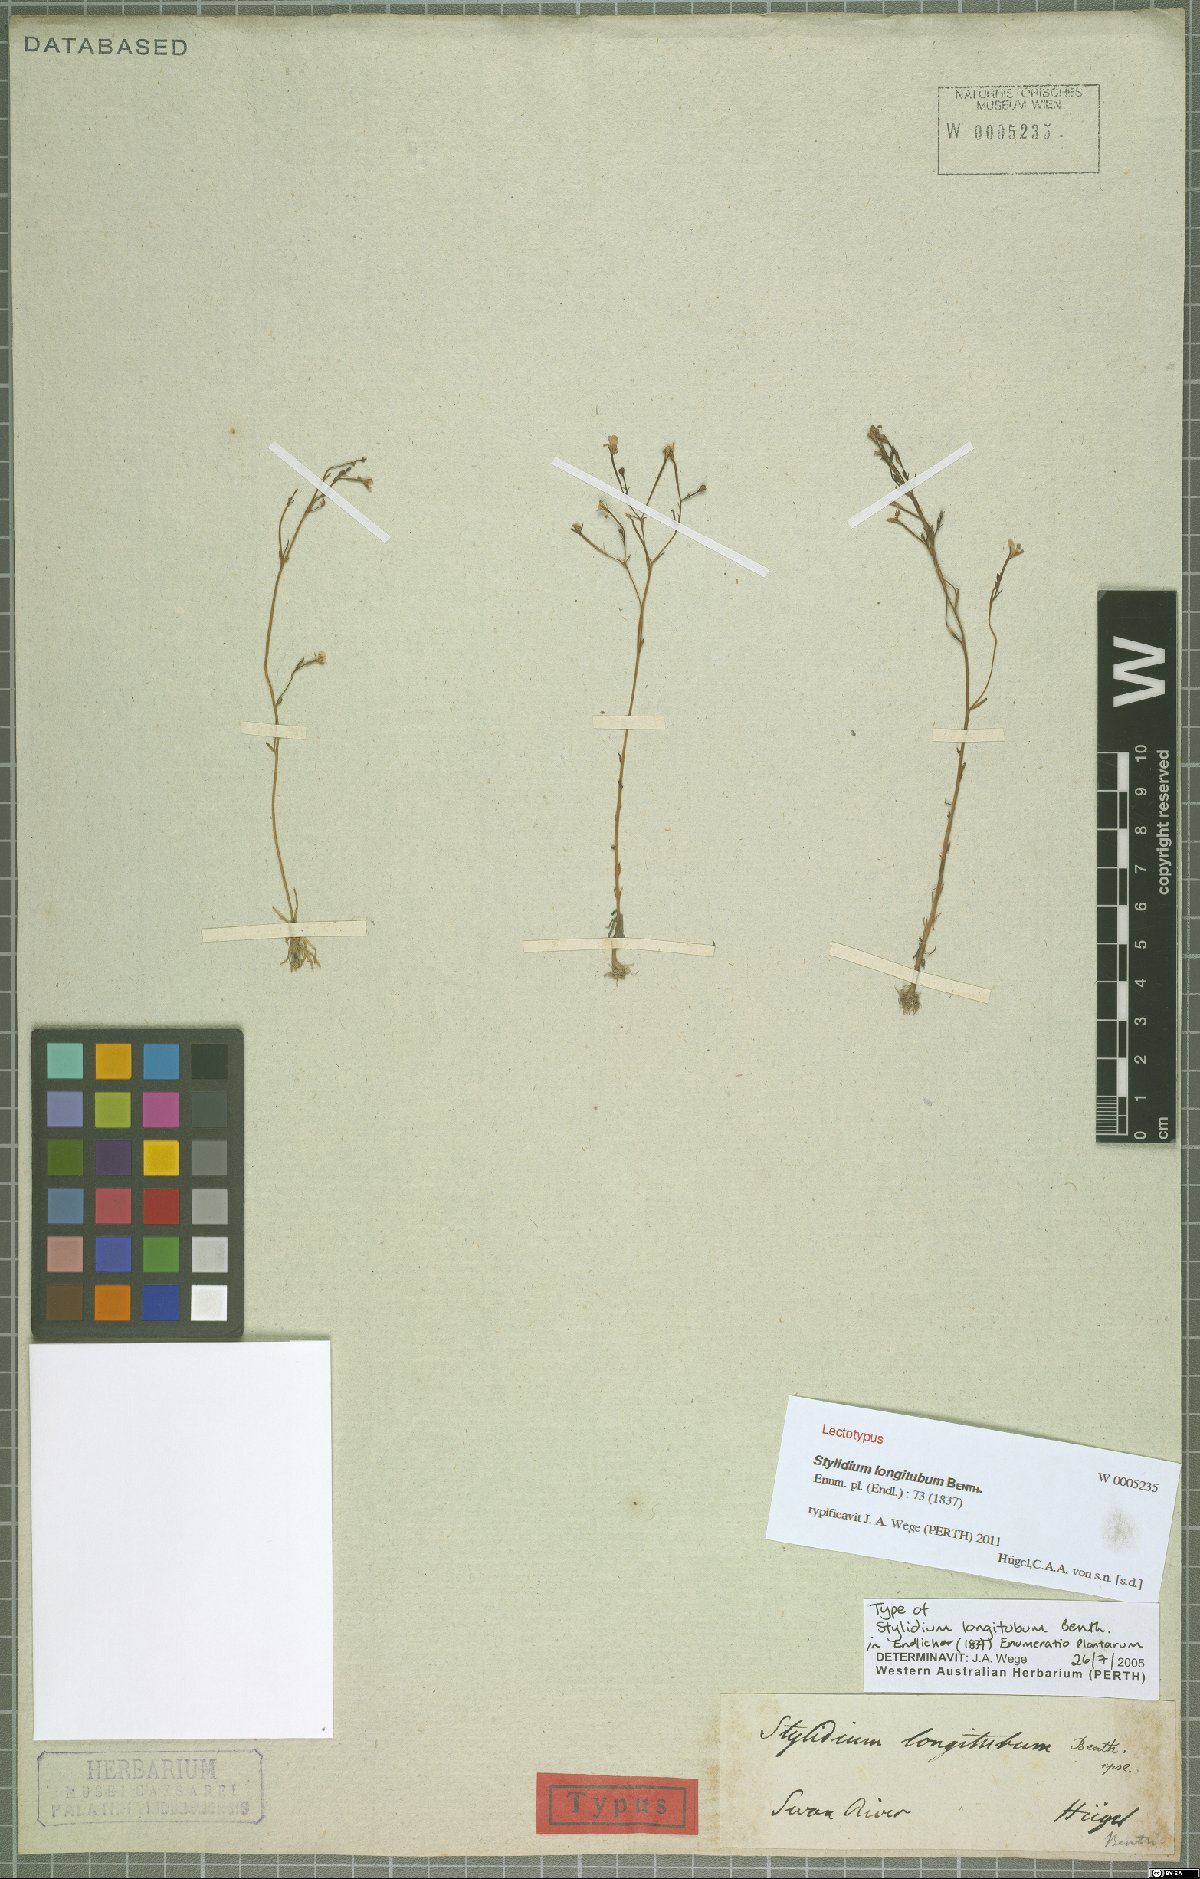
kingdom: Plantae
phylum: Tracheophyta
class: Magnoliopsida
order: Asterales
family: Stylidiaceae
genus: Stylidium
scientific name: Stylidium longitubum
